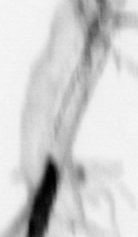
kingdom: Animalia
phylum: Chaetognatha
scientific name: Chaetognatha
